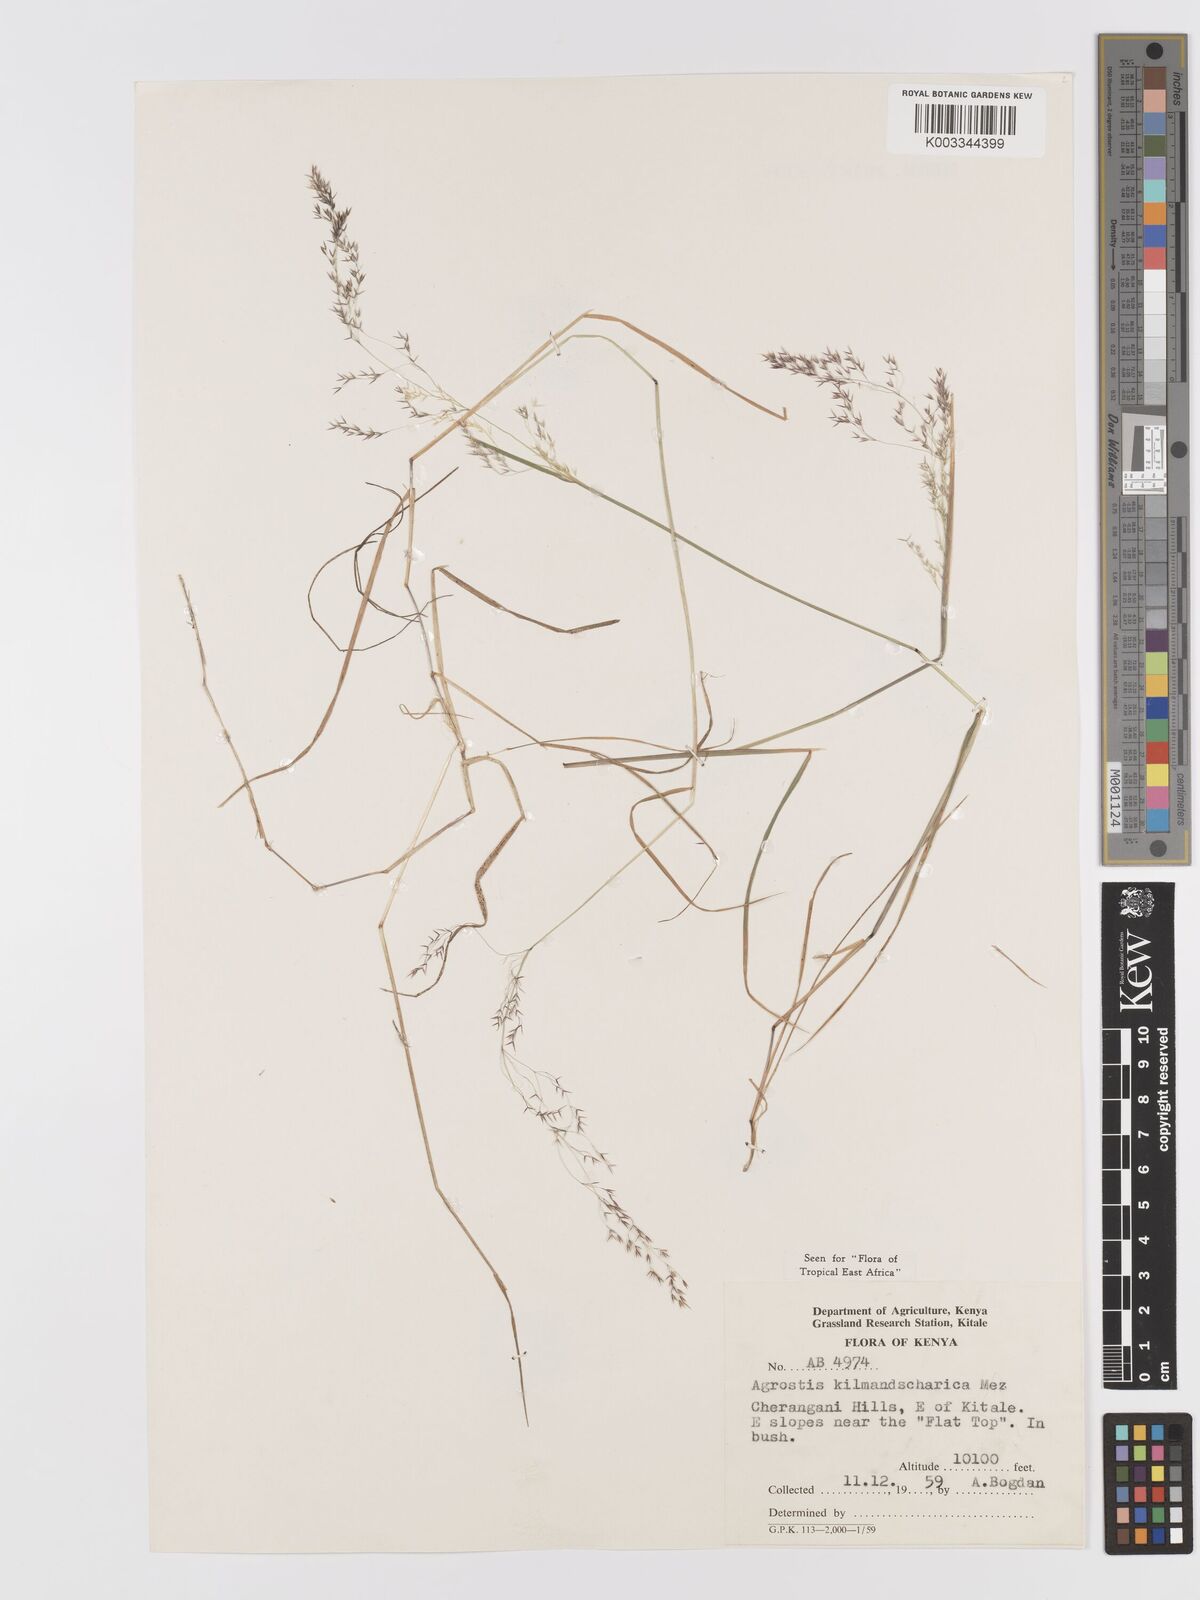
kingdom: Plantae
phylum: Tracheophyta
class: Liliopsida
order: Poales
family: Poaceae
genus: Agrostis
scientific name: Agrostis kilimandscharica
